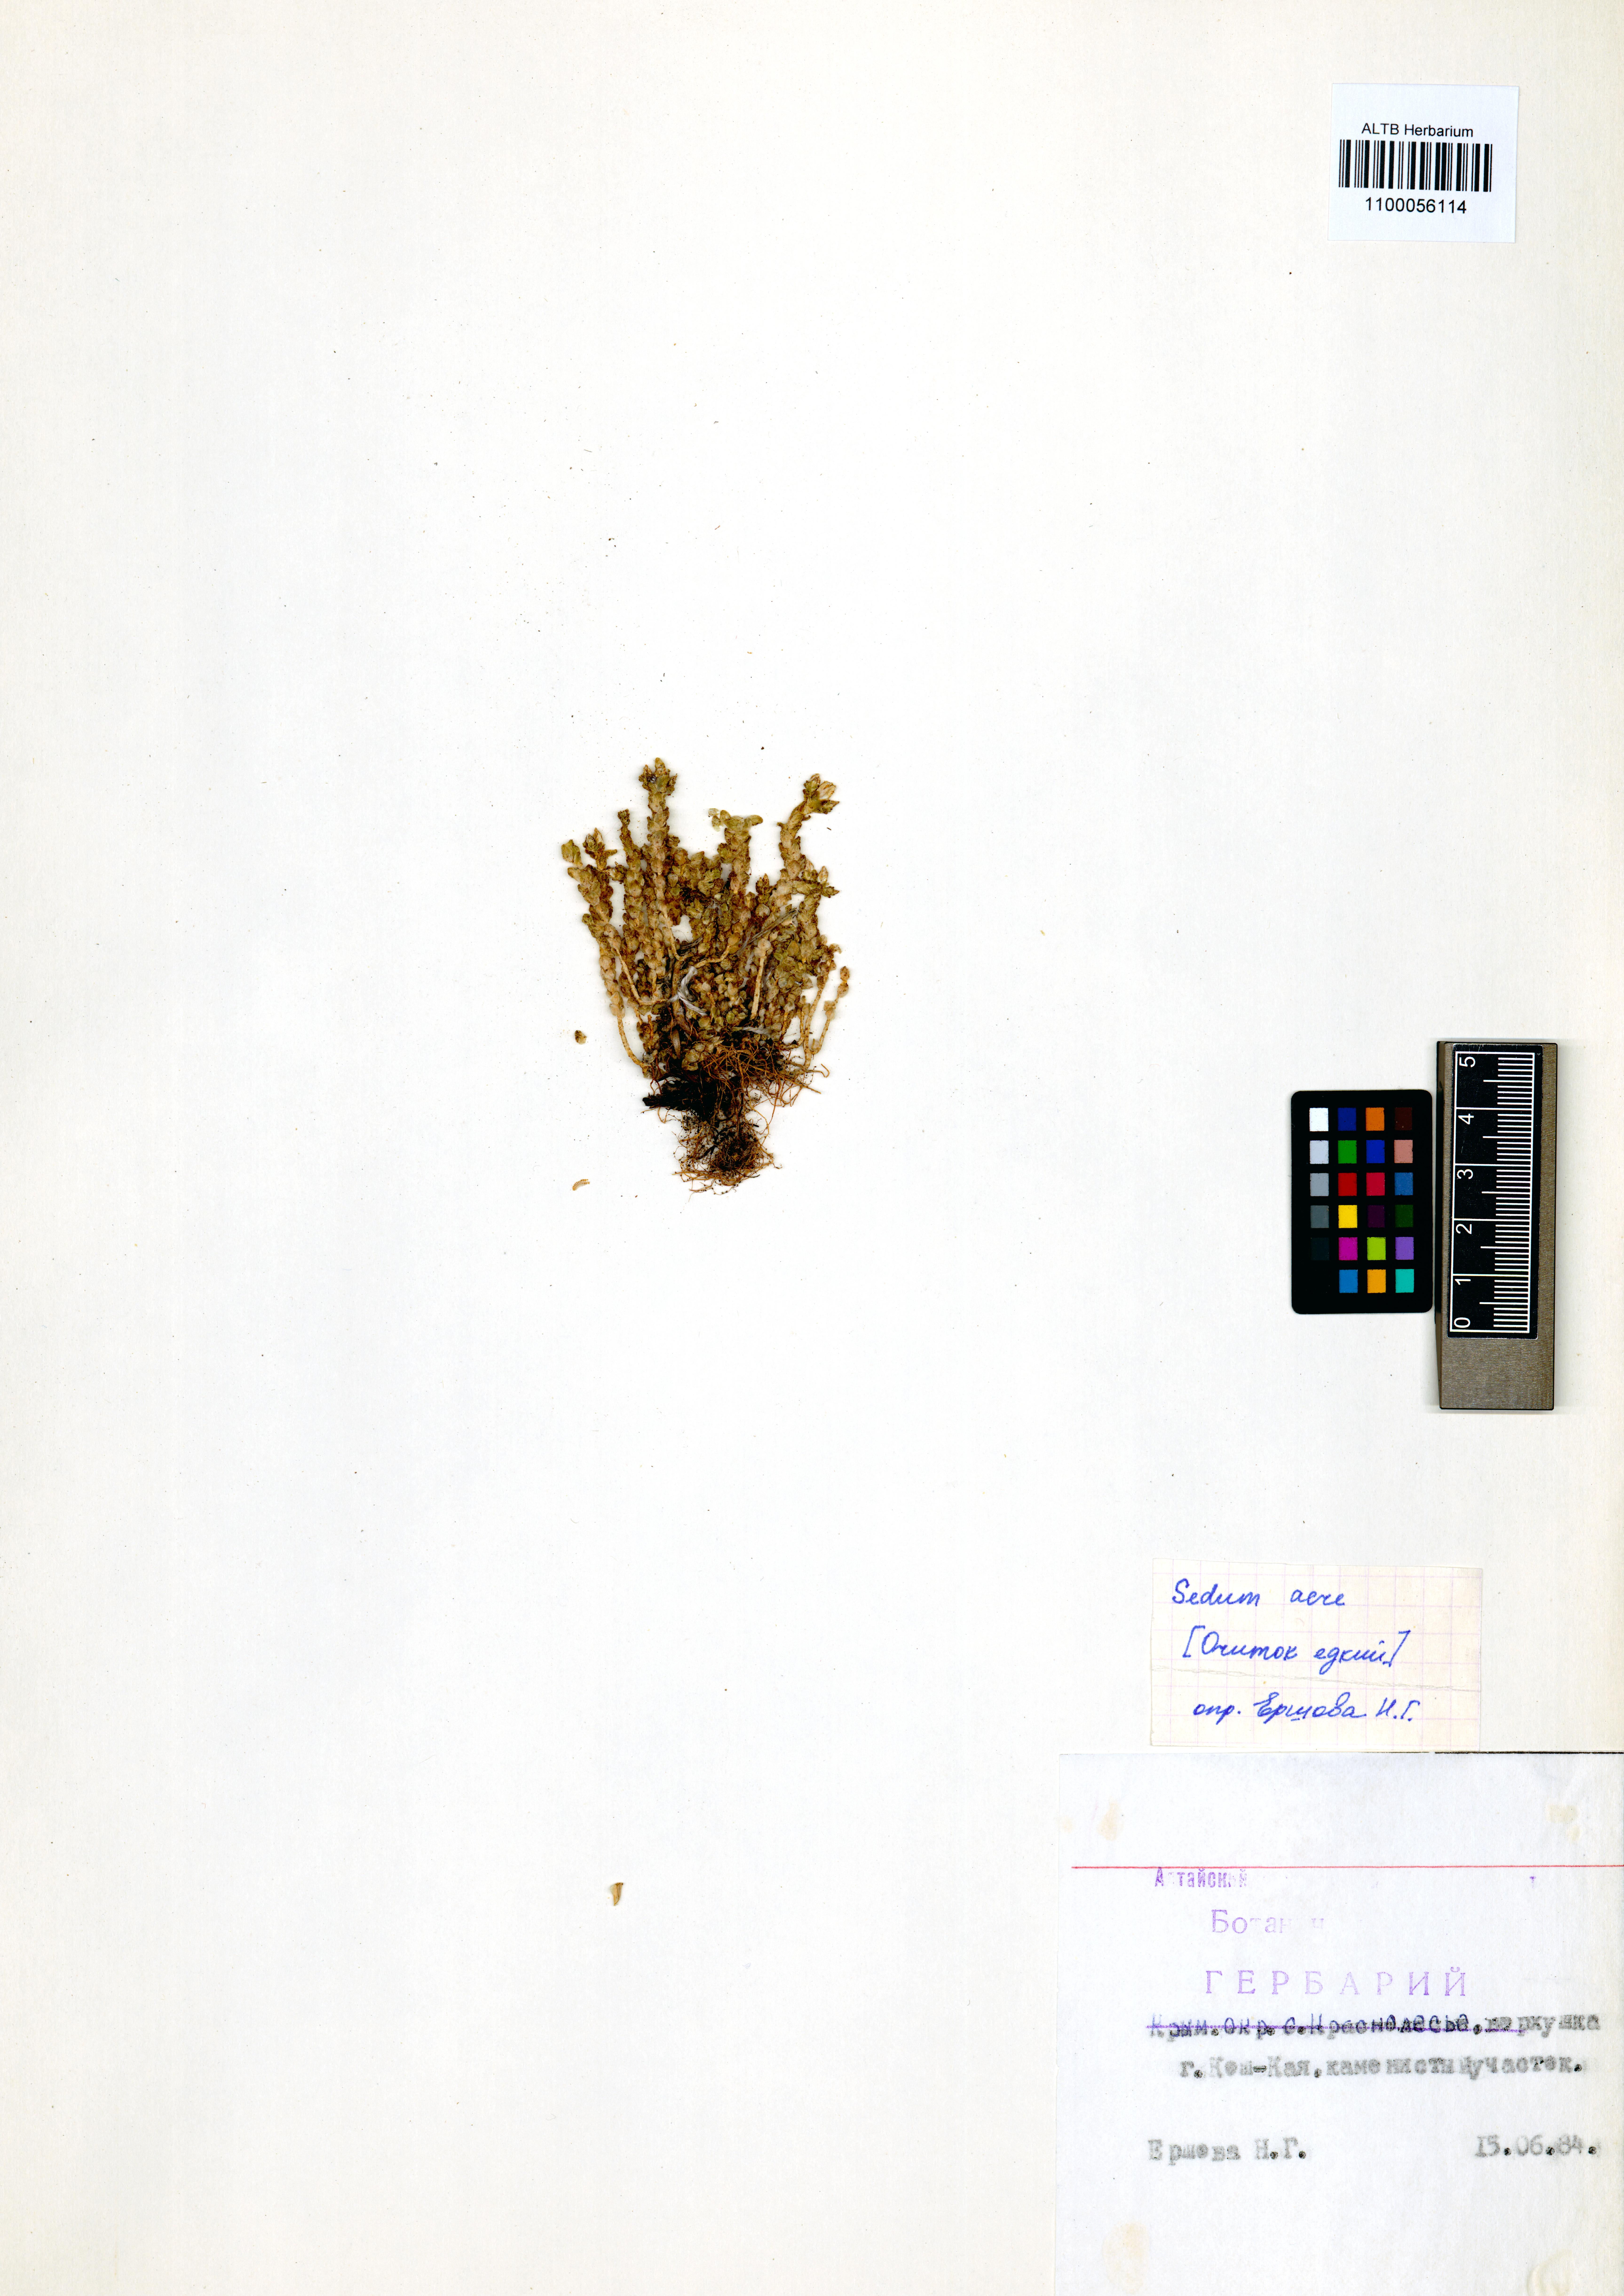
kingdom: Plantae
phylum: Tracheophyta
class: Magnoliopsida
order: Saxifragales
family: Crassulaceae
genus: Sedum
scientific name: Sedum acre
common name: Biting stonecrop
